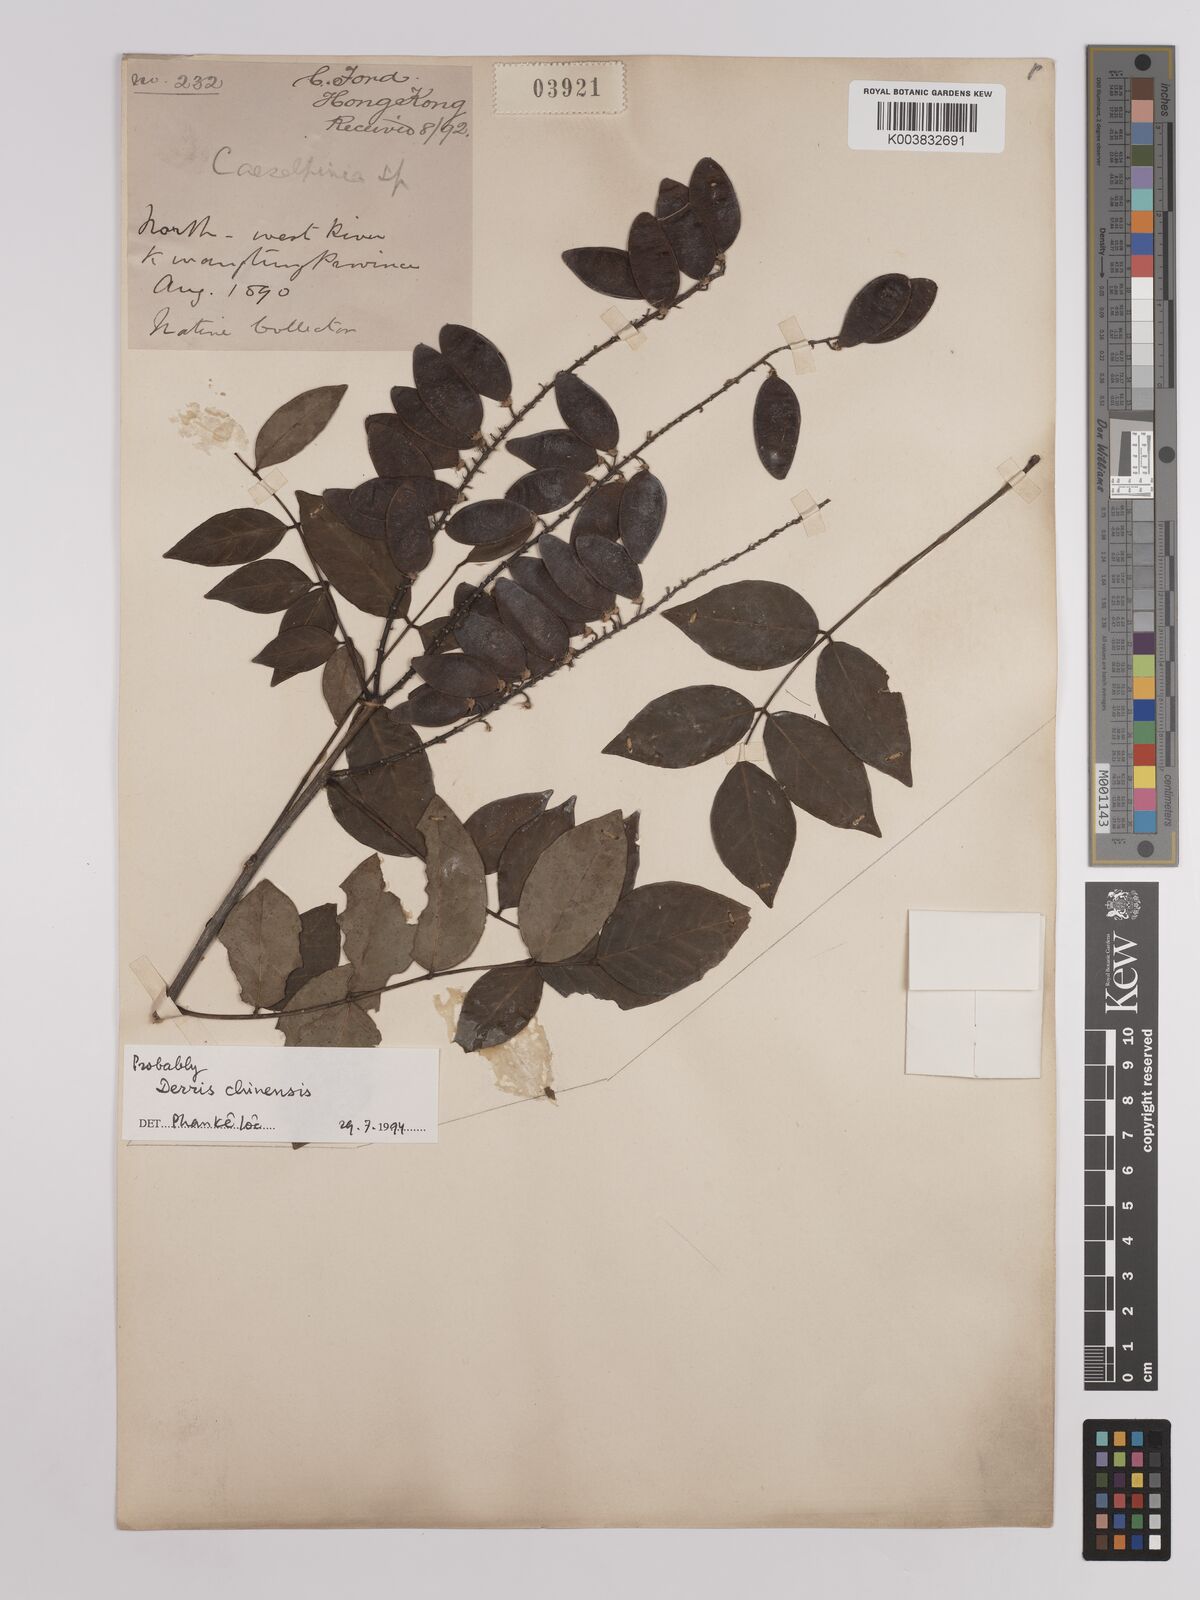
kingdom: Plantae
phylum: Tracheophyta
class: Magnoliopsida
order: Fabales
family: Fabaceae
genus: Derris
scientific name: Derris chinensis
